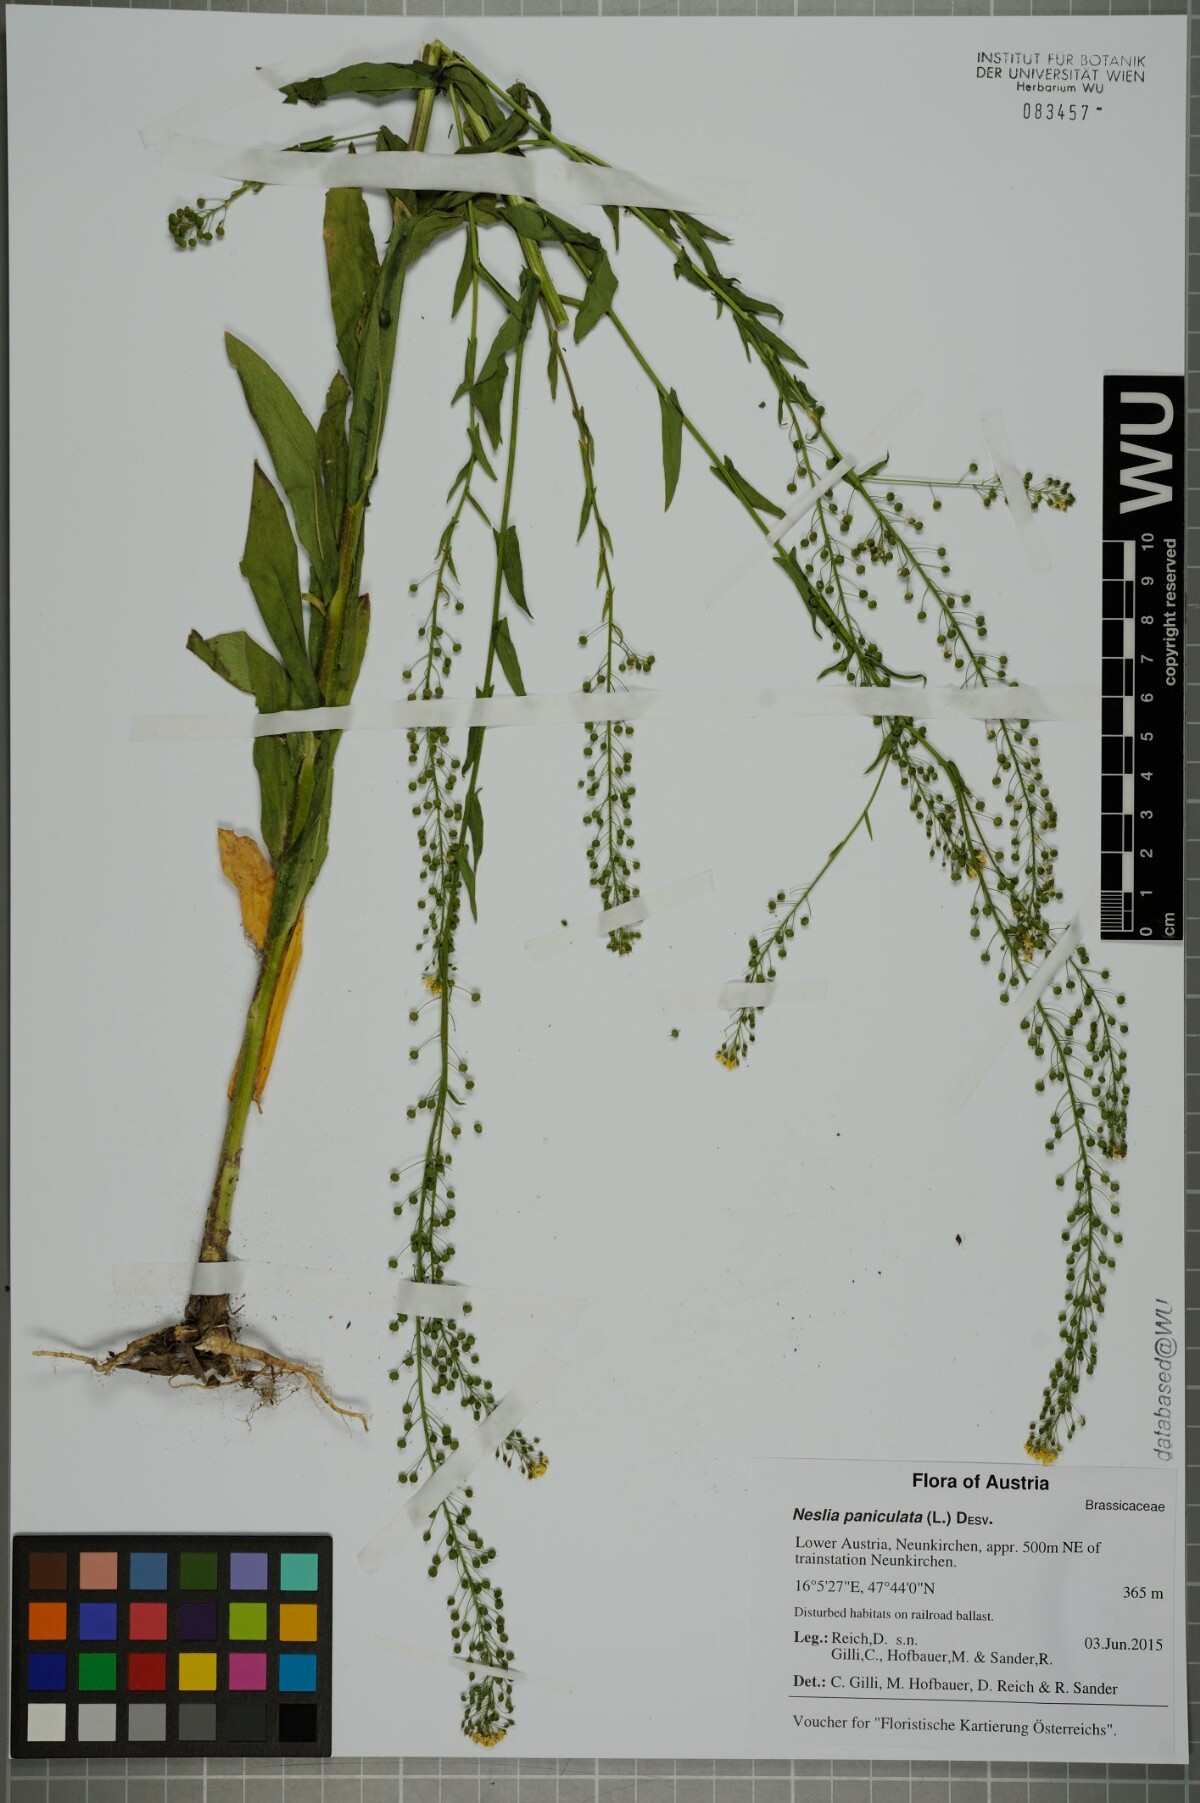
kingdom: Plantae
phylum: Tracheophyta
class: Magnoliopsida
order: Brassicales
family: Brassicaceae
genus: Neslia
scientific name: Neslia paniculata
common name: Ball mustard
